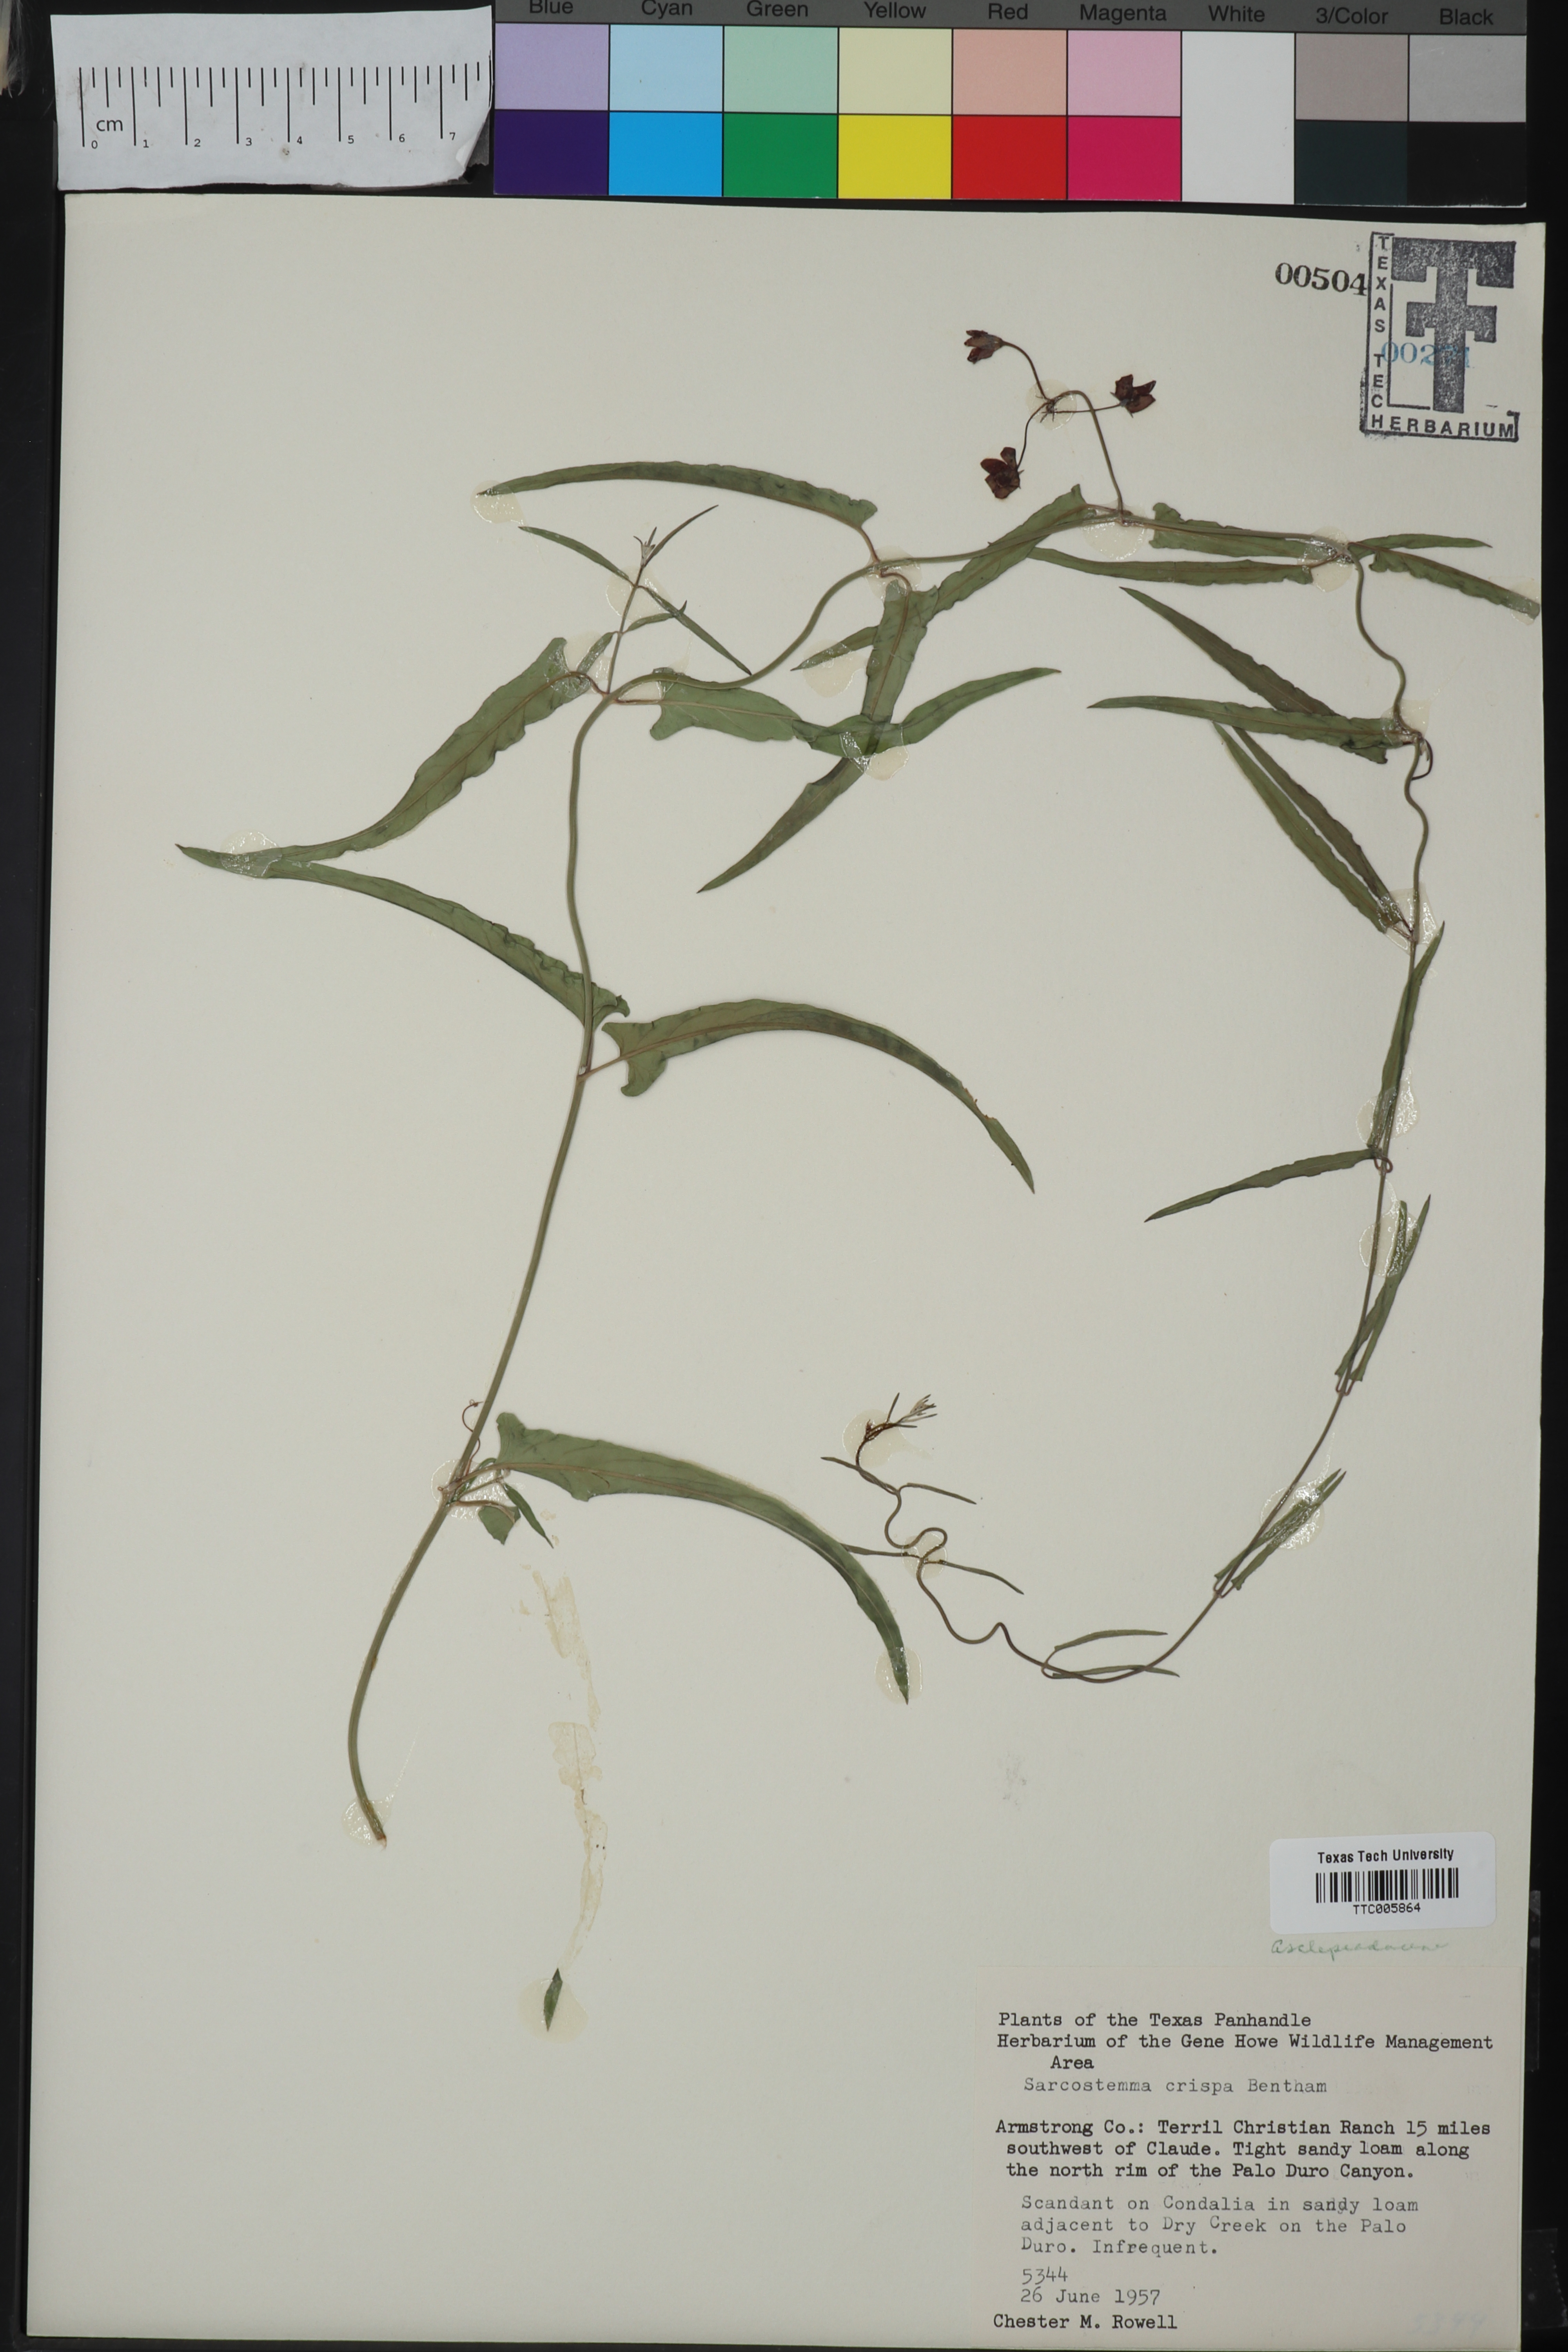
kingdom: Plantae
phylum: Tracheophyta
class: Magnoliopsida
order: Gentianales
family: Apocynaceae
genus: Funastrum
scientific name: Funastrum crispum
